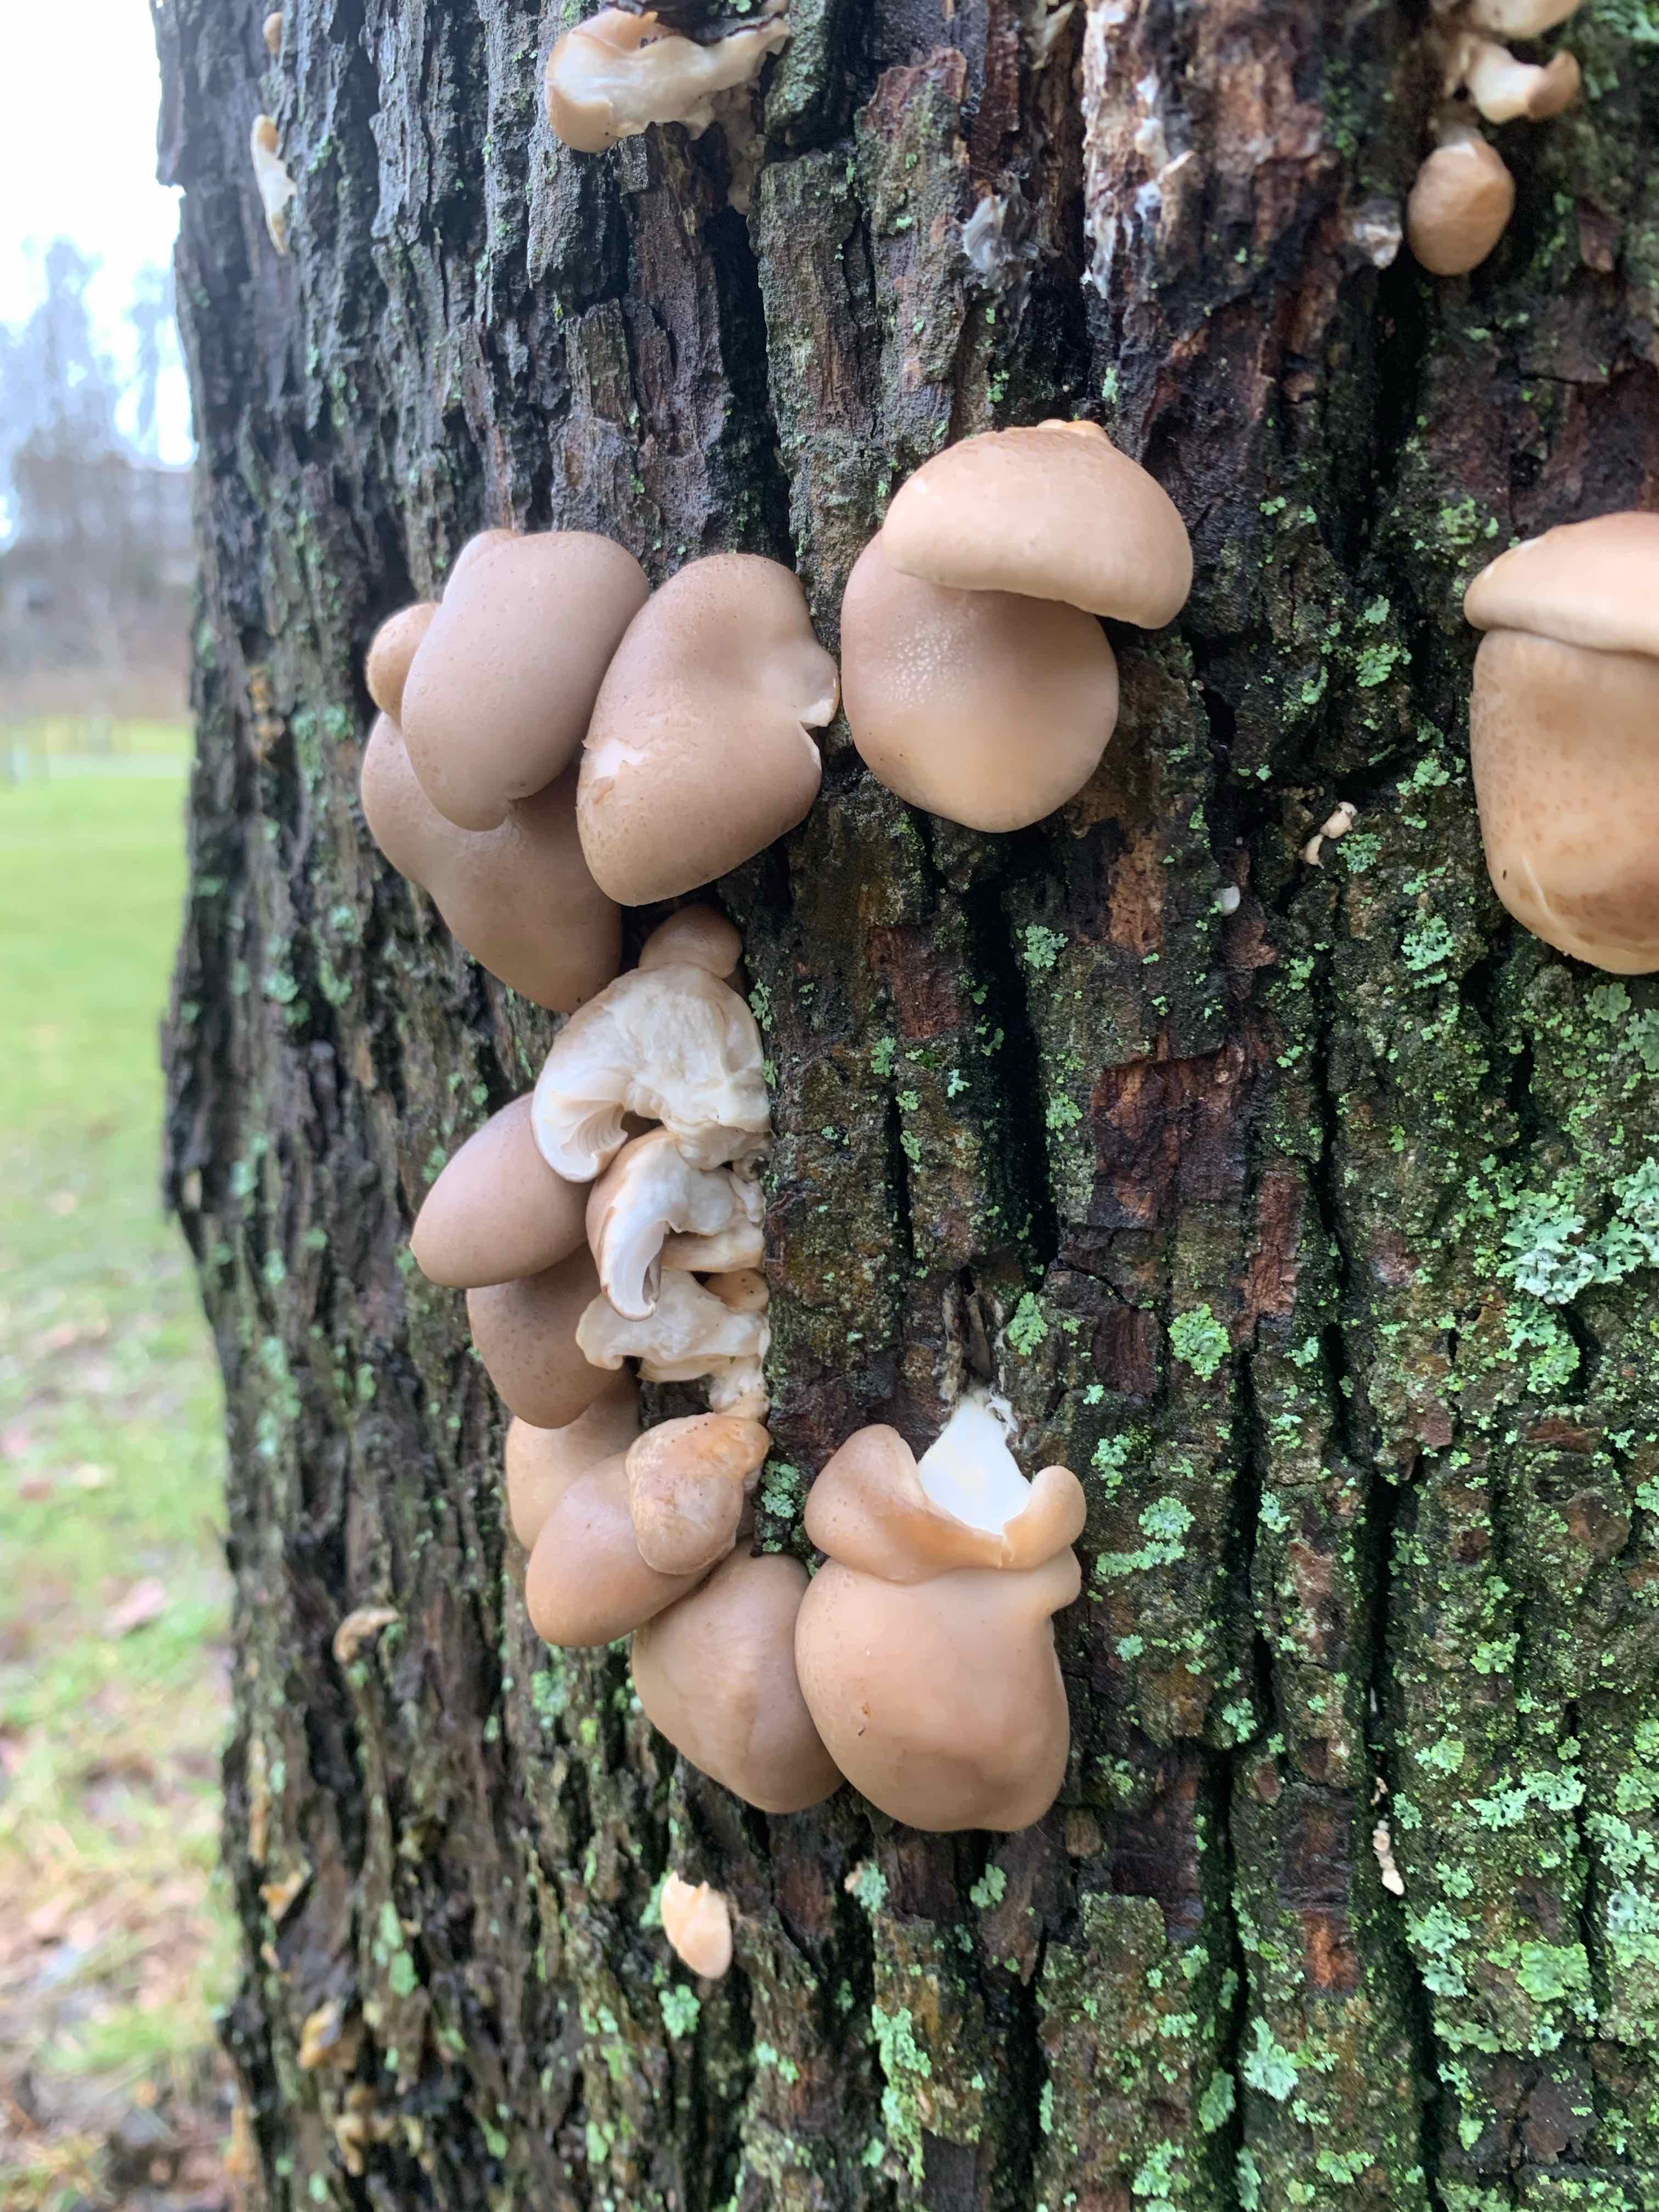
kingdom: Fungi
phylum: Basidiomycota
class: Agaricomycetes
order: Agaricales
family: Pleurotaceae
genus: Pleurotus
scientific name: Pleurotus ostreatus
